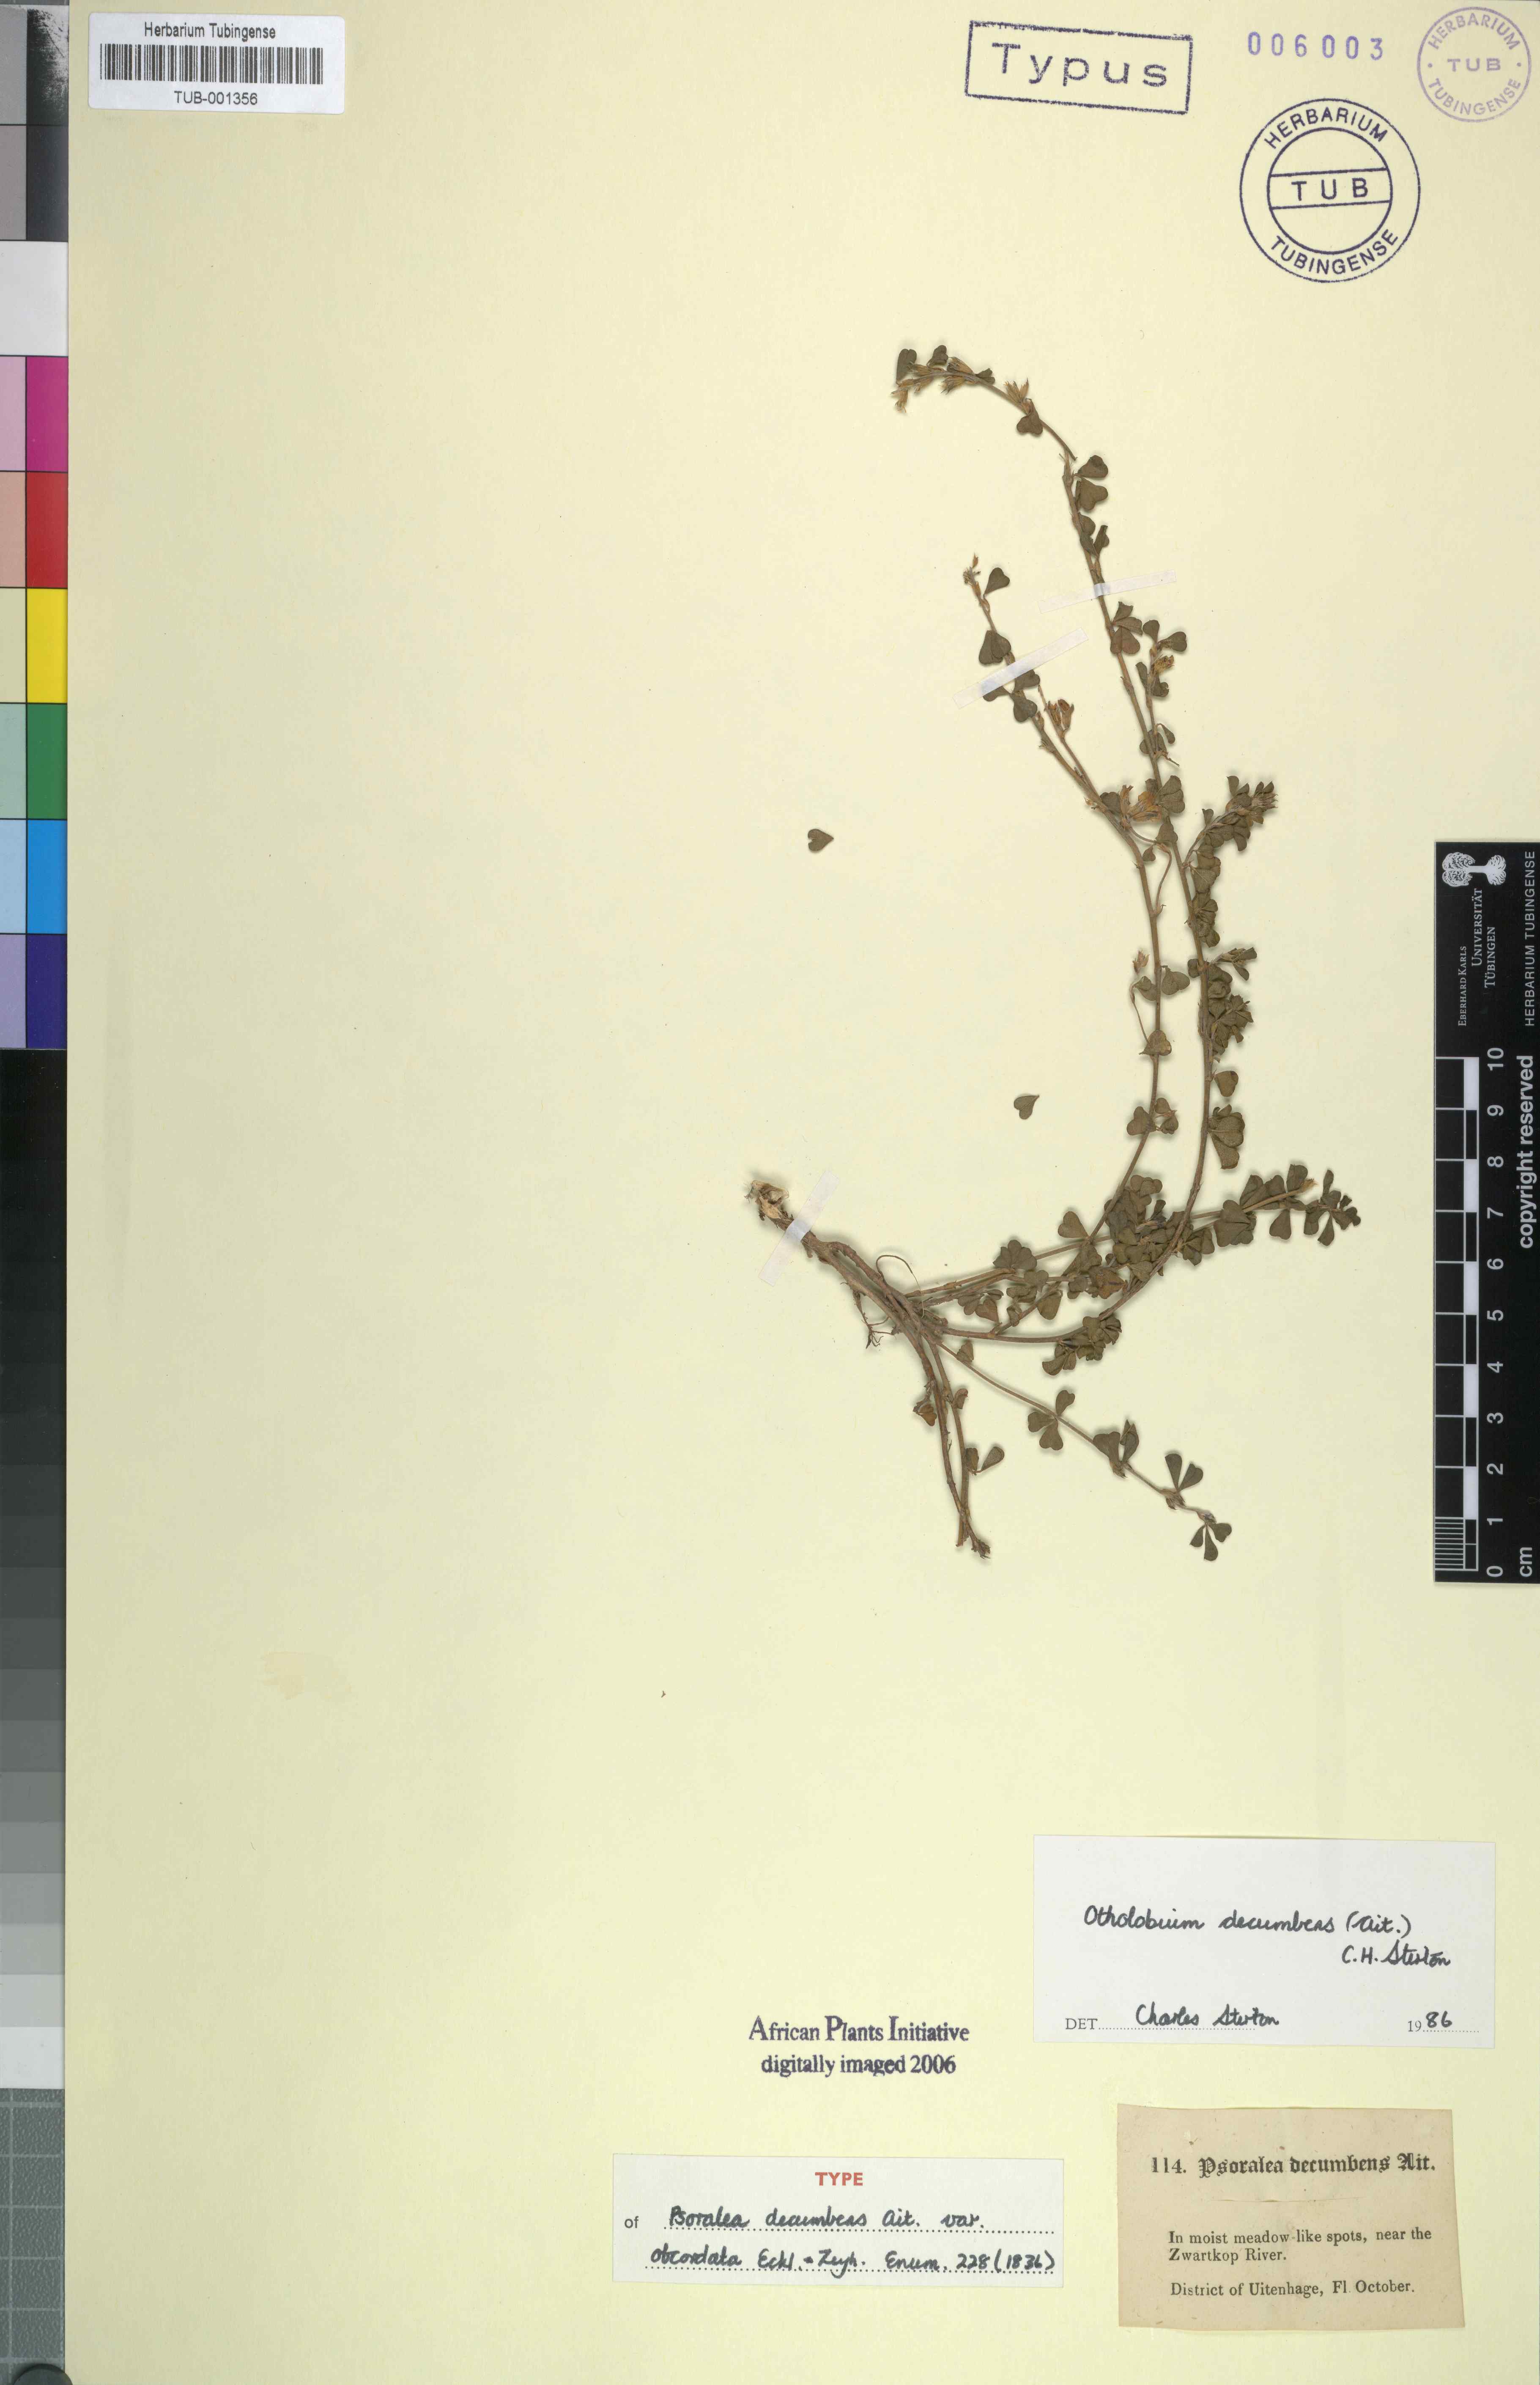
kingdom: Plantae
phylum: Tracheophyta
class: Magnoliopsida
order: Fabales
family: Fabaceae
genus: Psoralea
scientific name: Psoralea Otholobium decumbens
